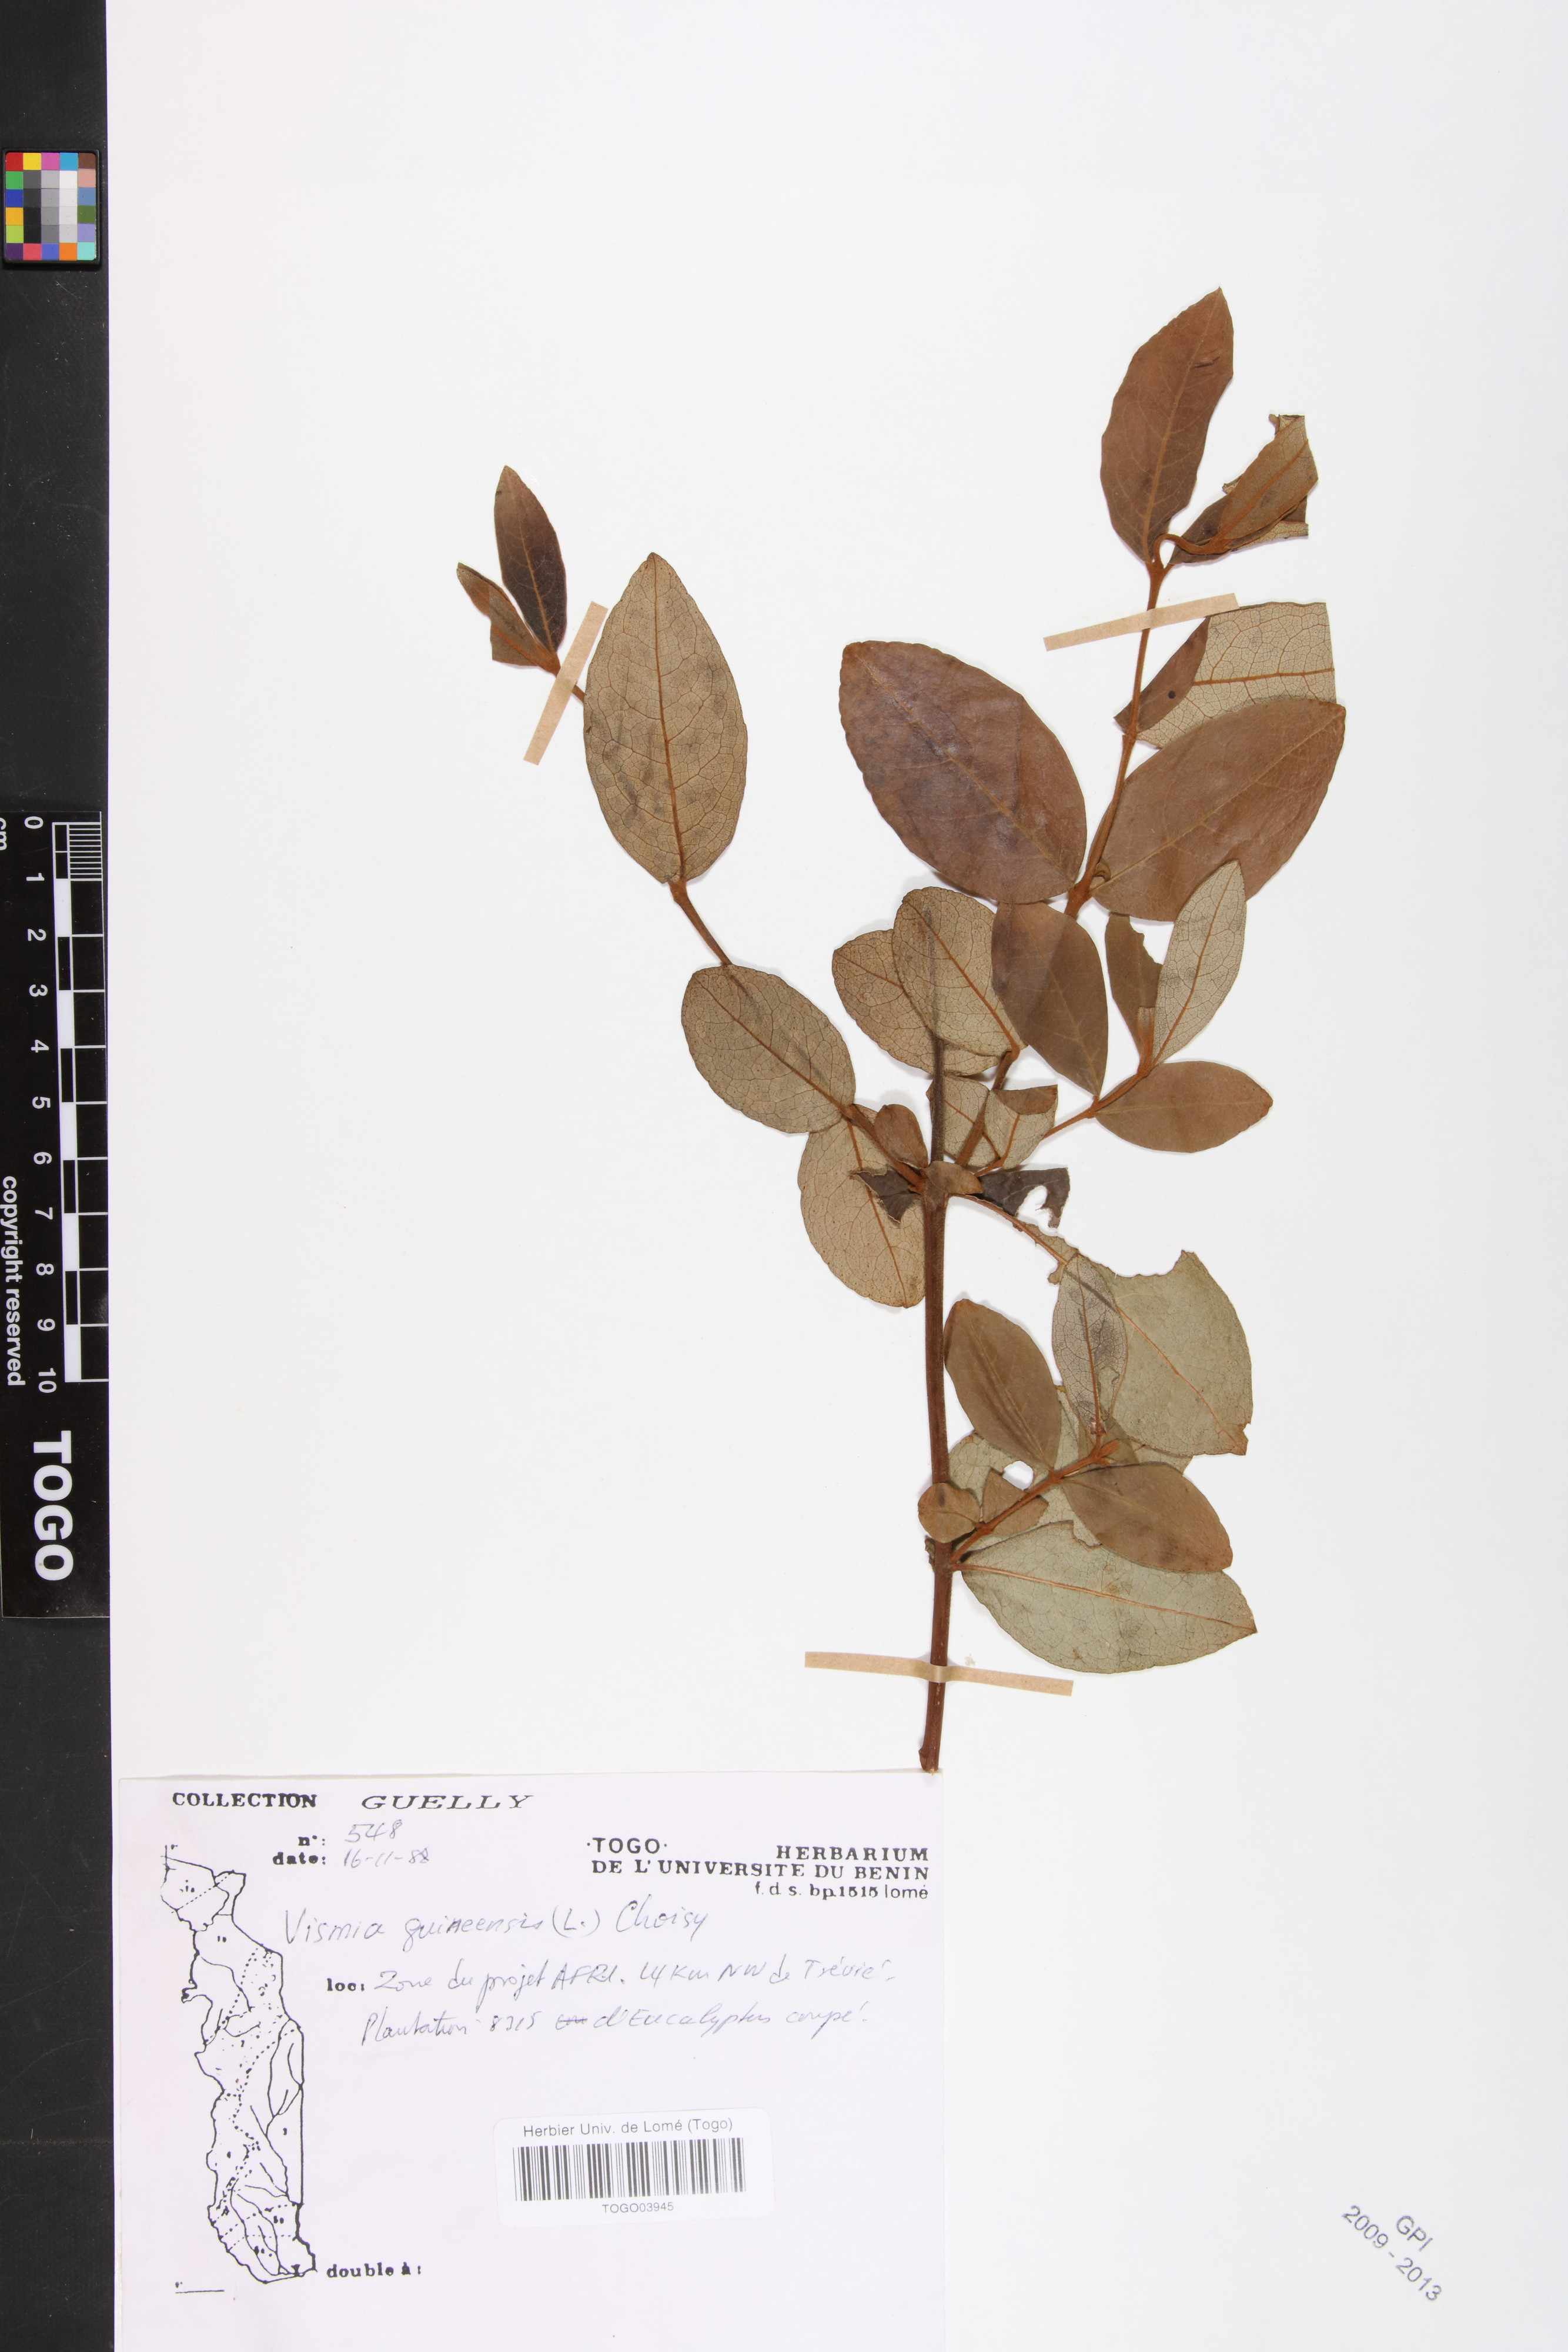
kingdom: Plantae
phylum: Tracheophyta
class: Magnoliopsida
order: Malpighiales
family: Hypericaceae
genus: Psorospermum
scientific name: Psorospermum guineense
